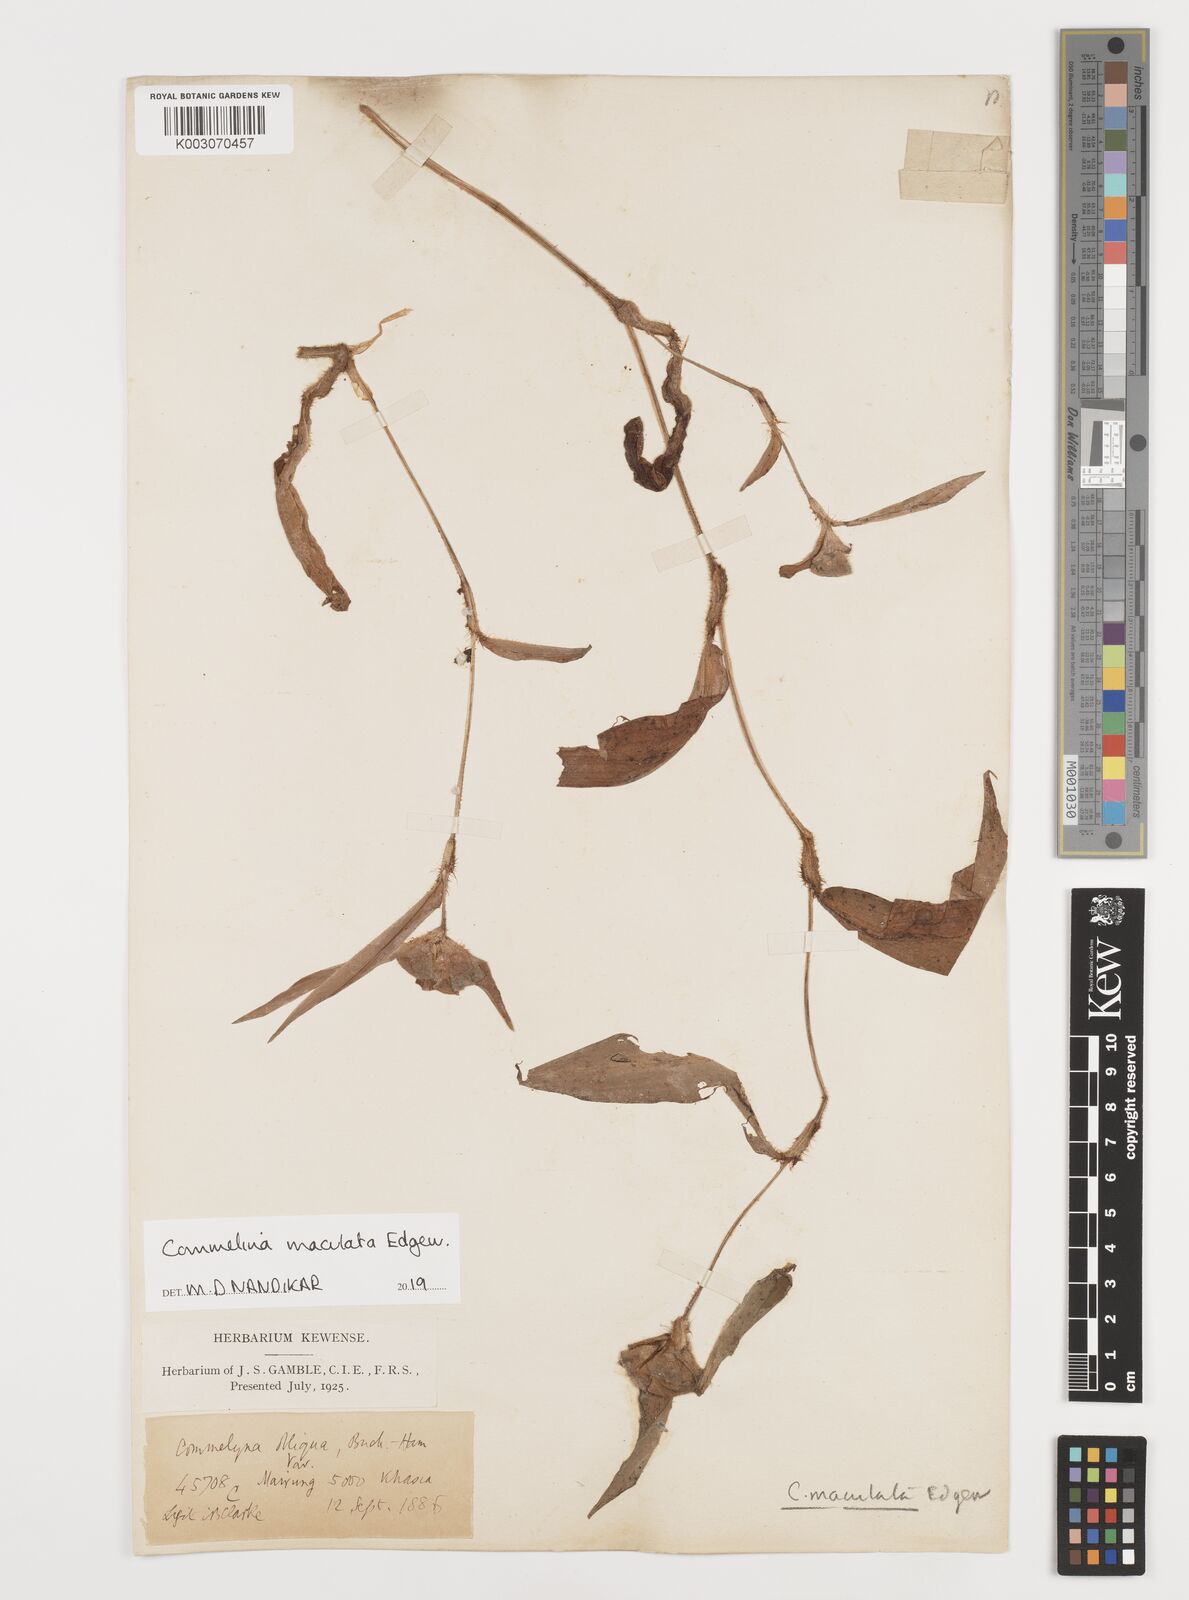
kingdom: Plantae
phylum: Tracheophyta
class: Liliopsida
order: Commelinales
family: Commelinaceae
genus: Commelina
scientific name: Commelina maculata
